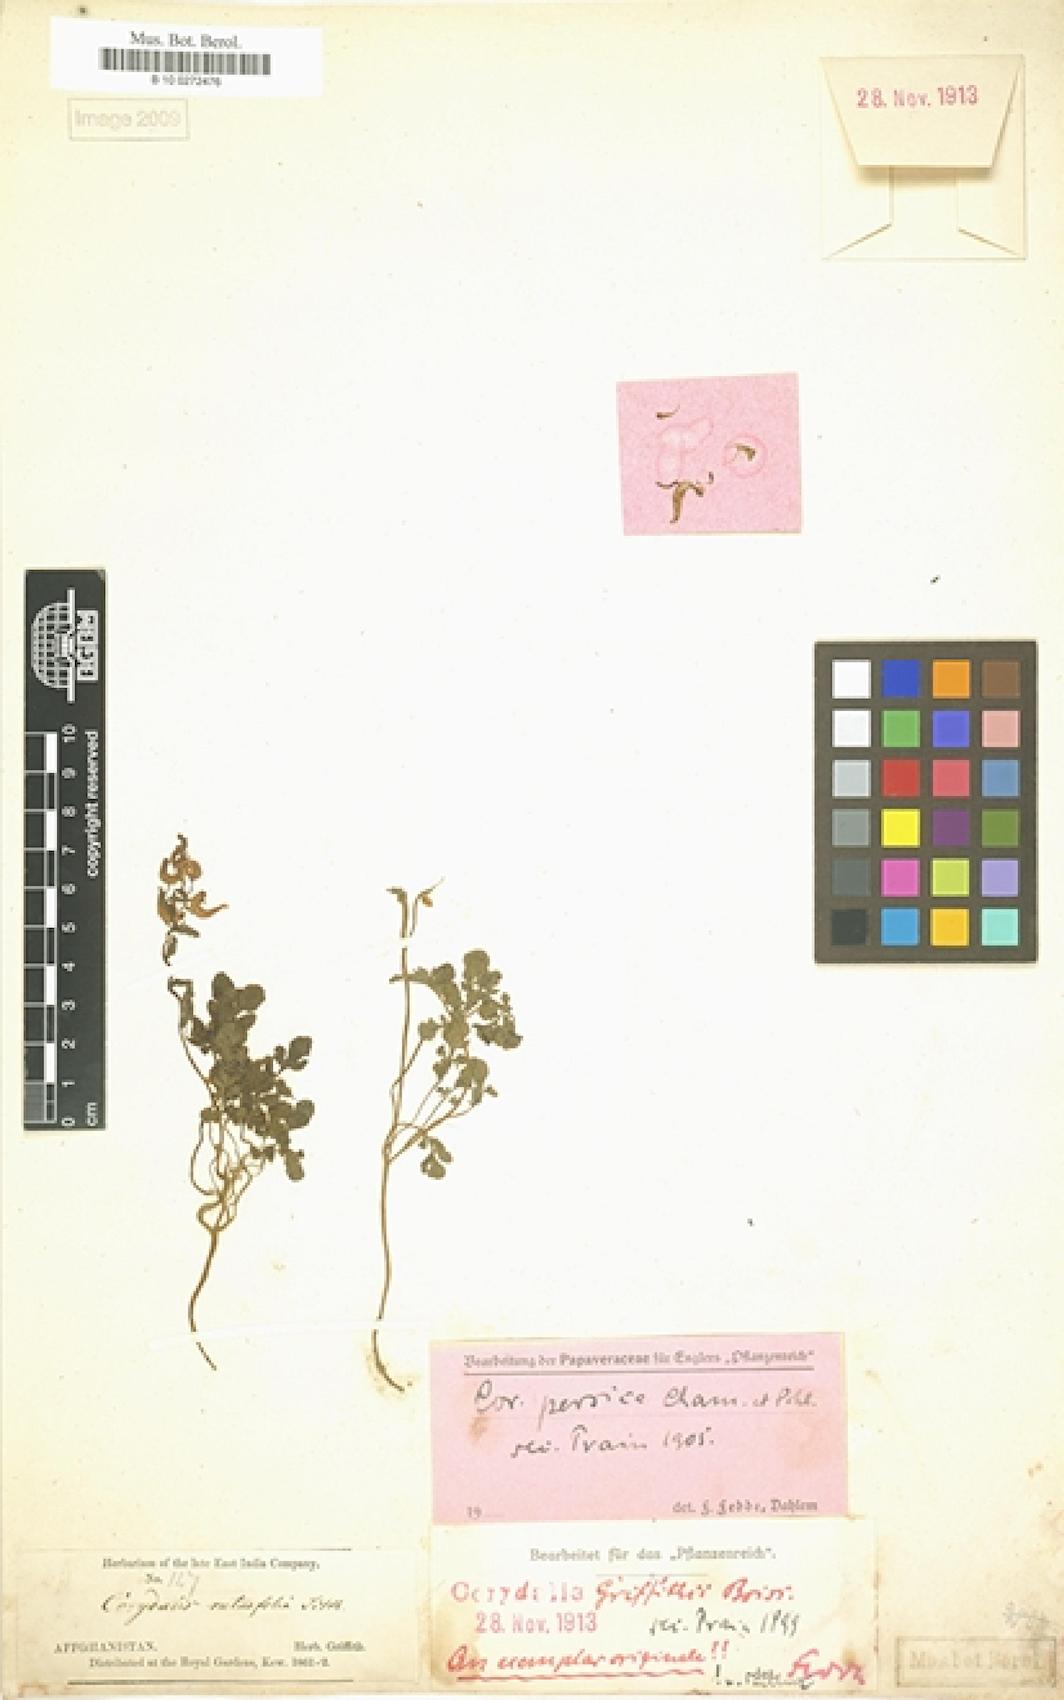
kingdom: Plantae
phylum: Tracheophyta
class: Magnoliopsida
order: Ranunculales
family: Papaveraceae
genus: Corydalis
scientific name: Corydalis verticillaris
